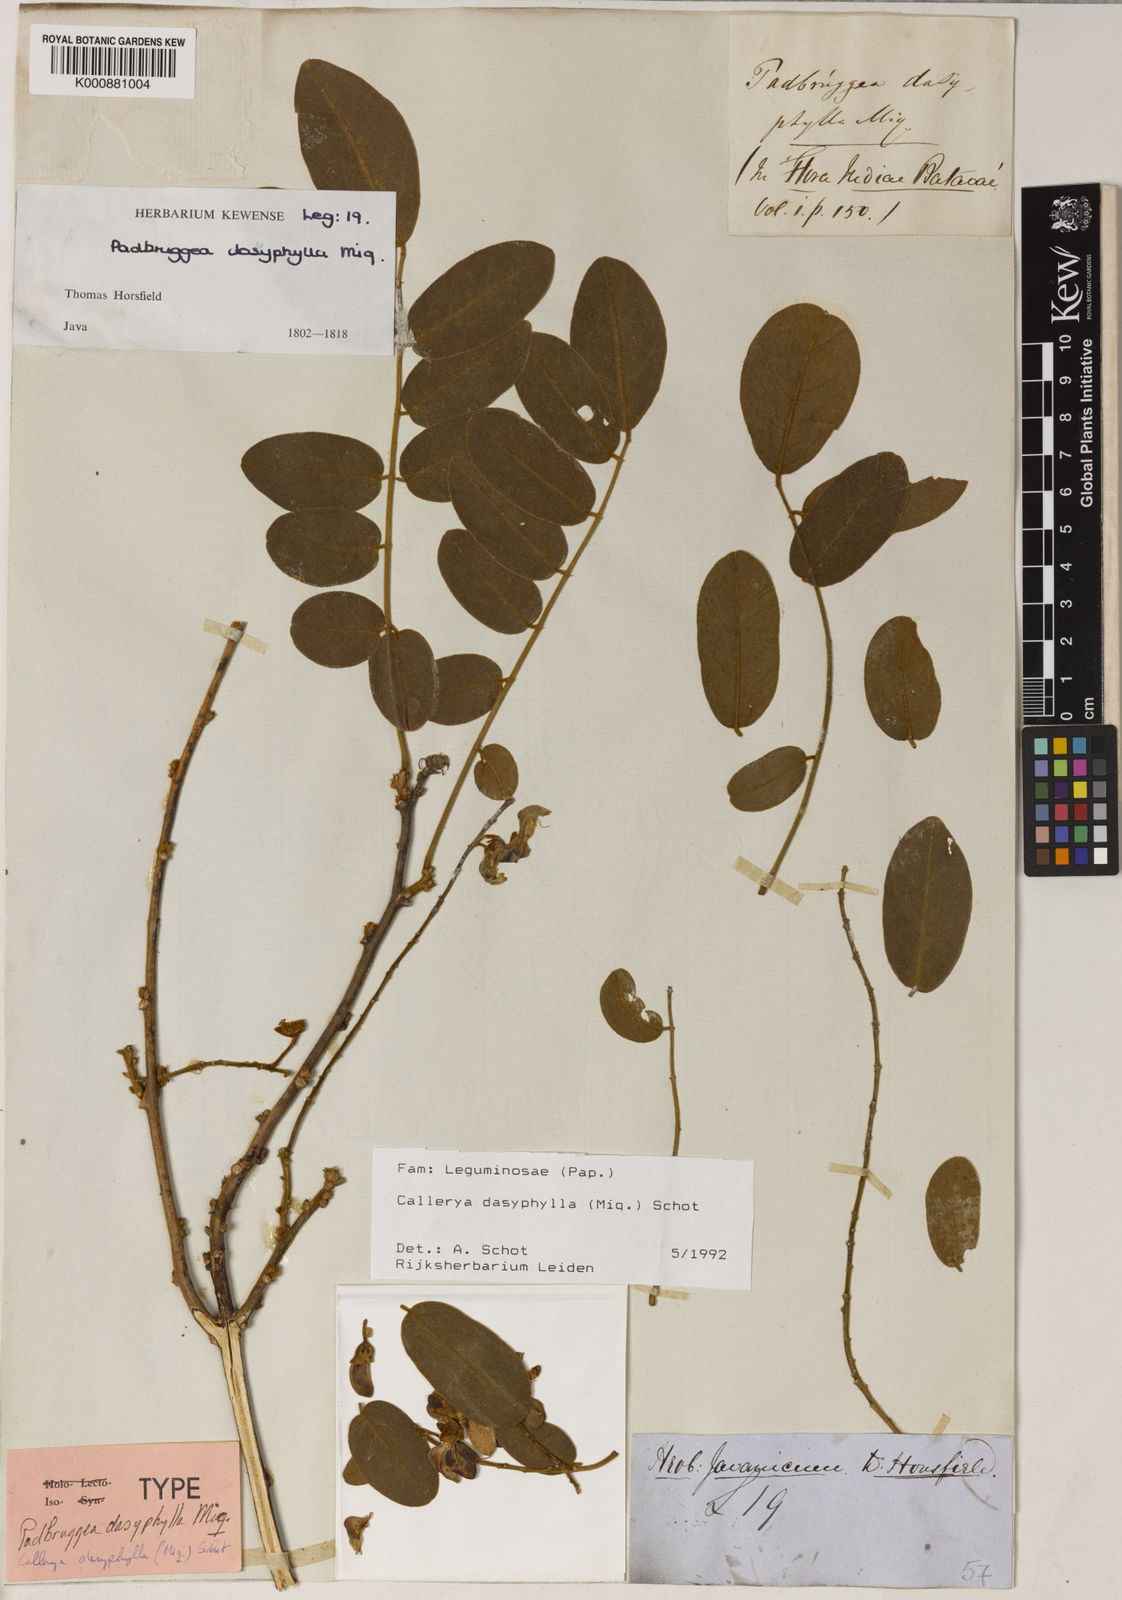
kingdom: Plantae
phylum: Tracheophyta
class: Magnoliopsida
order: Fabales
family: Fabaceae
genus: Padbruggea
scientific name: Padbruggea dasyphylla
